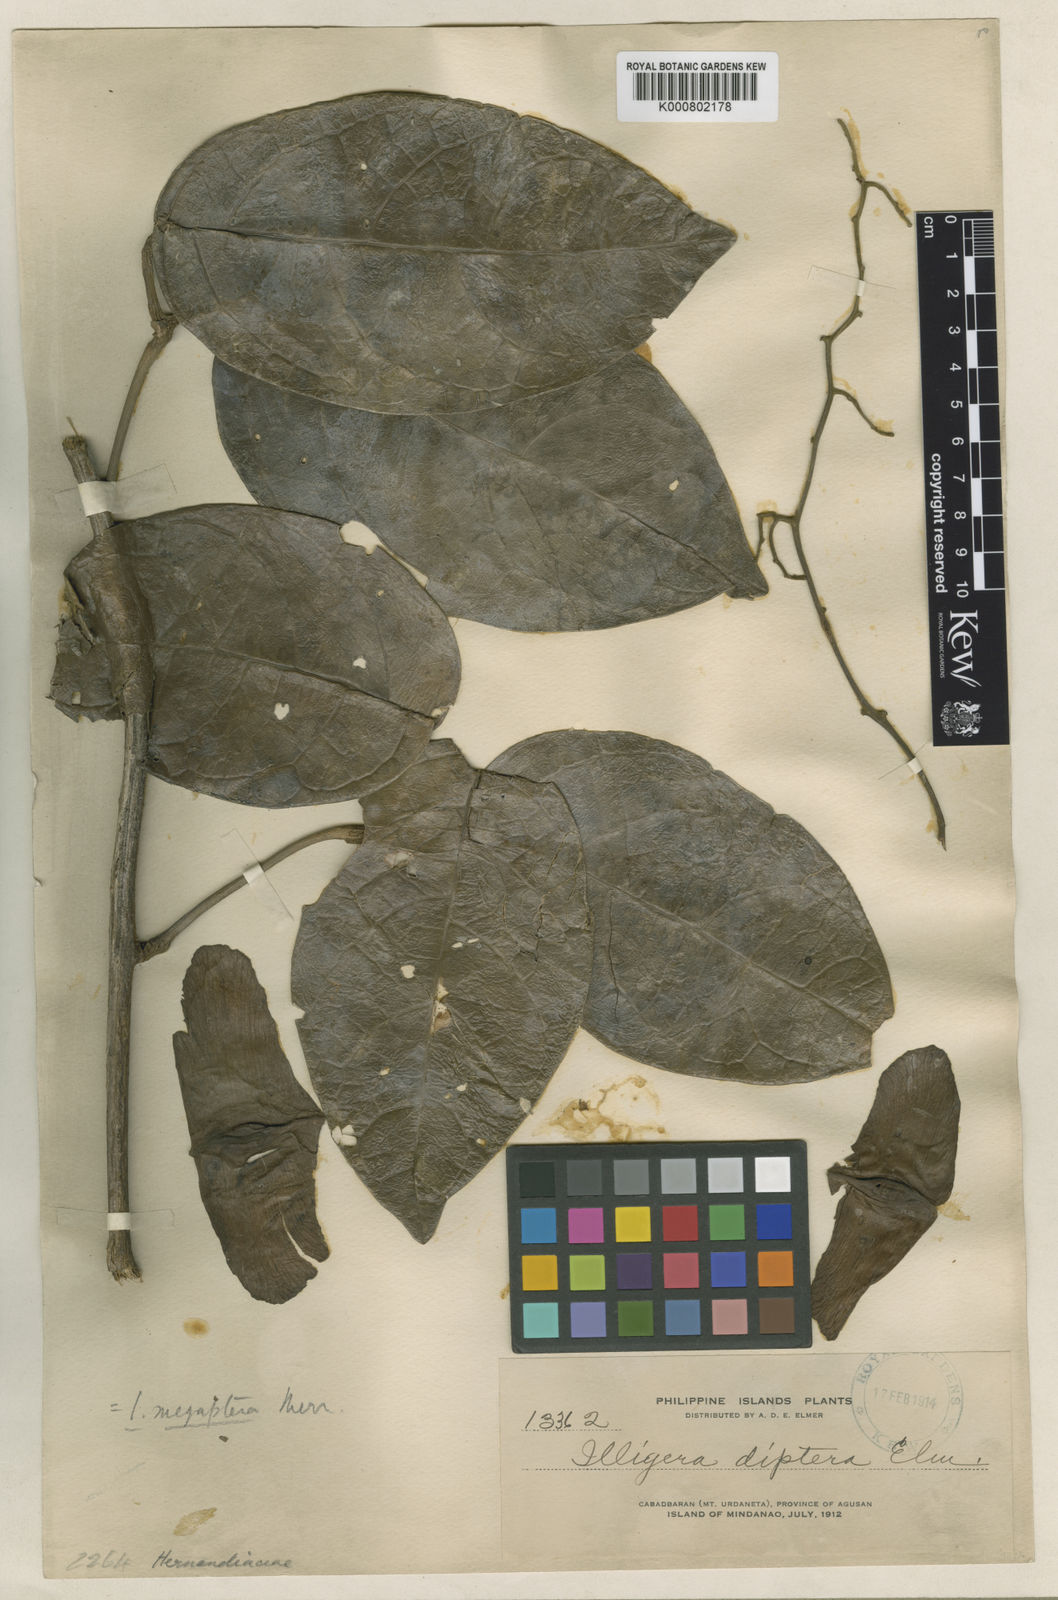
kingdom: Plantae
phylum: Tracheophyta
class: Magnoliopsida
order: Laurales
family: Hernandiaceae
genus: Illigera
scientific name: Illigera megaptera
